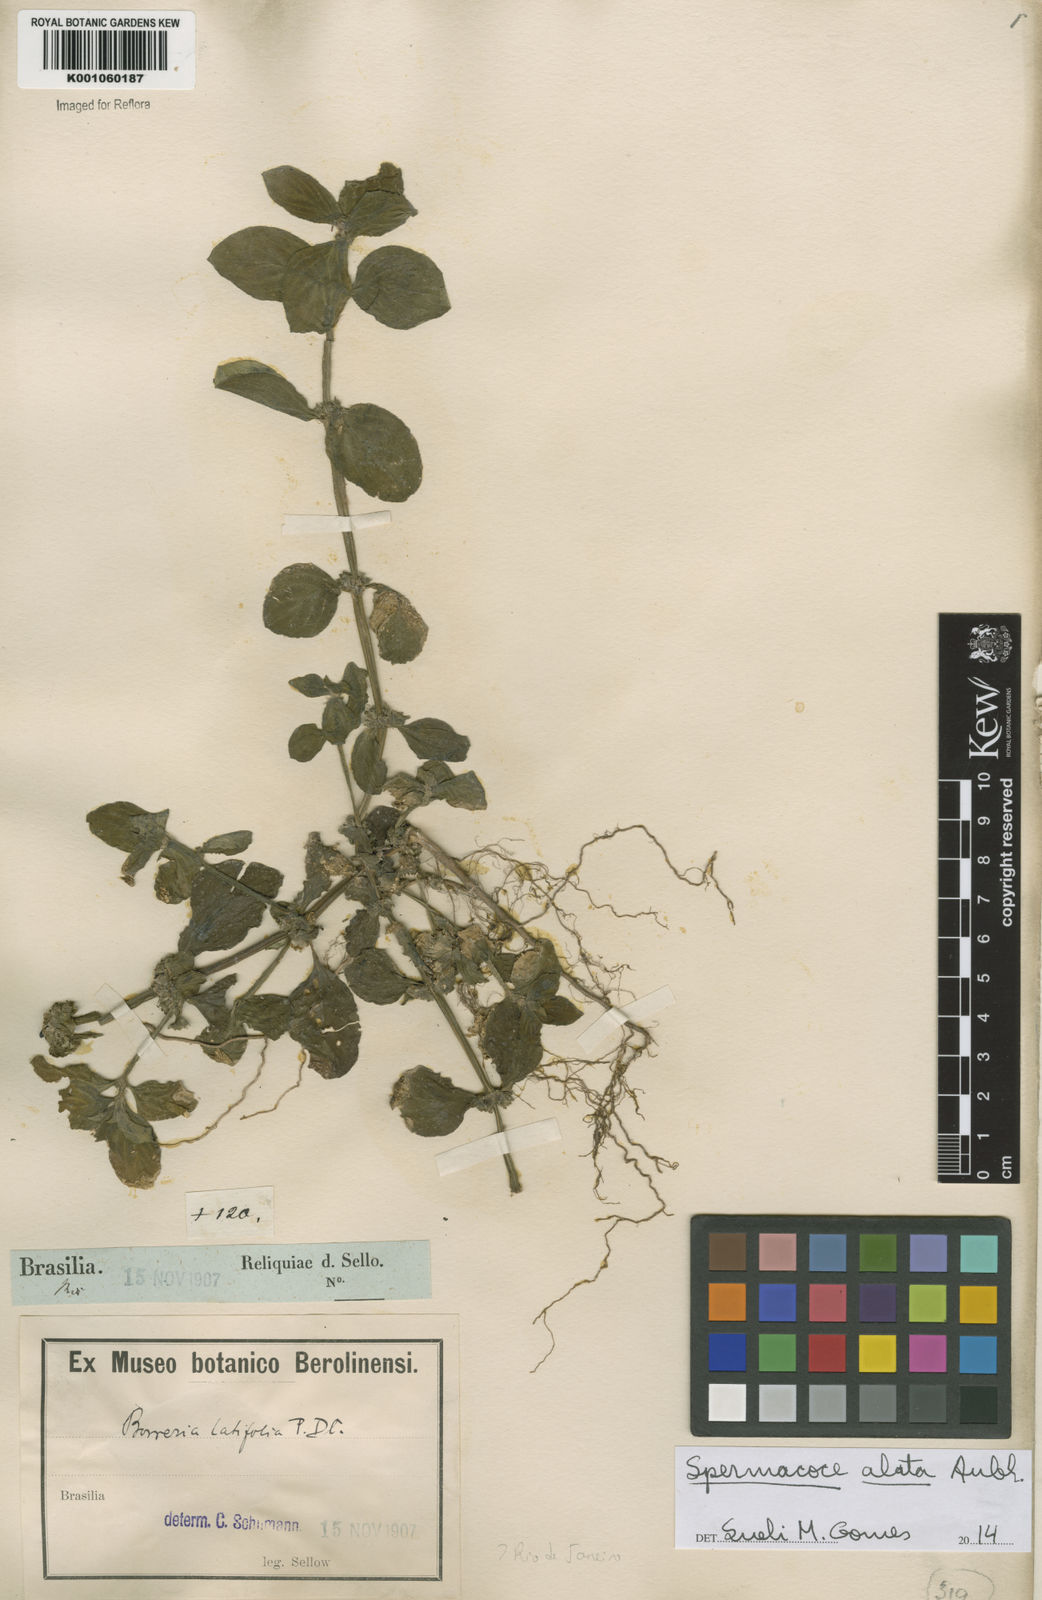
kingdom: Plantae
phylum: Tracheophyta
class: Magnoliopsida
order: Gentianales
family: Rubiaceae
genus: Spermacoce
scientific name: Spermacoce
